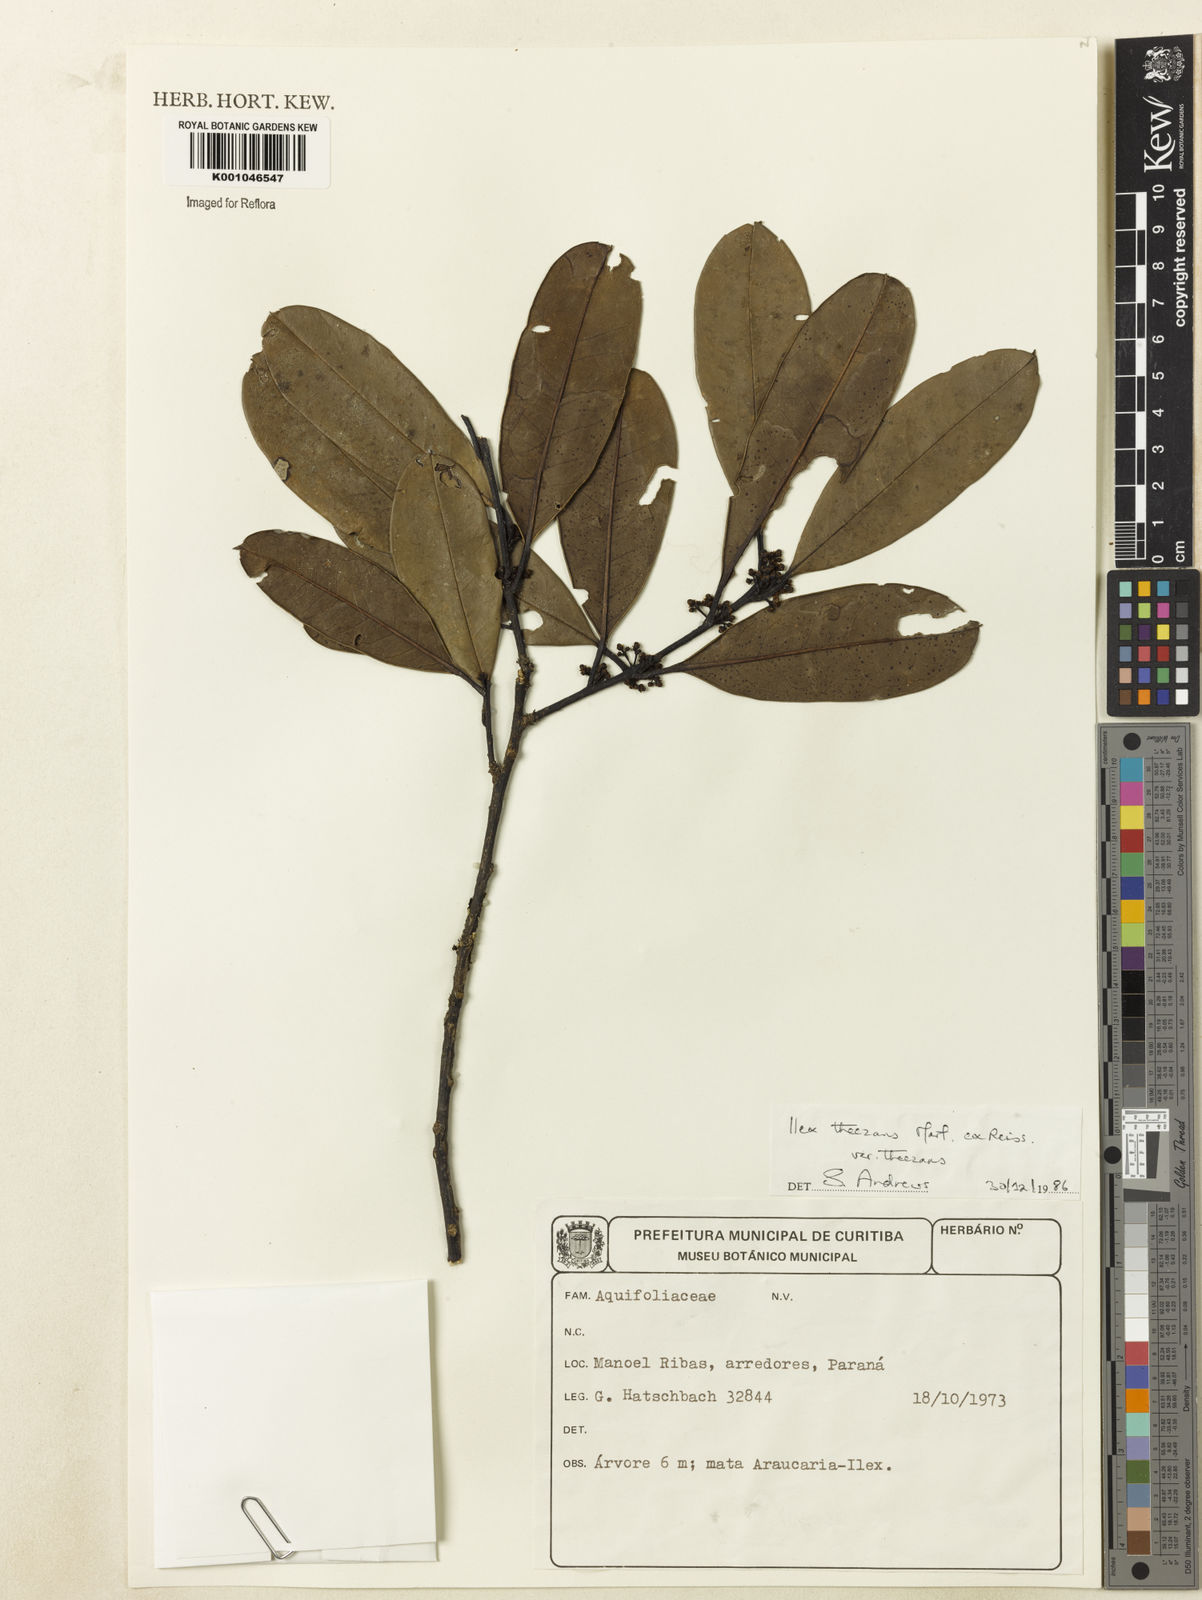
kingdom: Plantae
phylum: Tracheophyta
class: Magnoliopsida
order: Aquifoliales
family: Aquifoliaceae
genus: Ilex
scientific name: Ilex theezans
